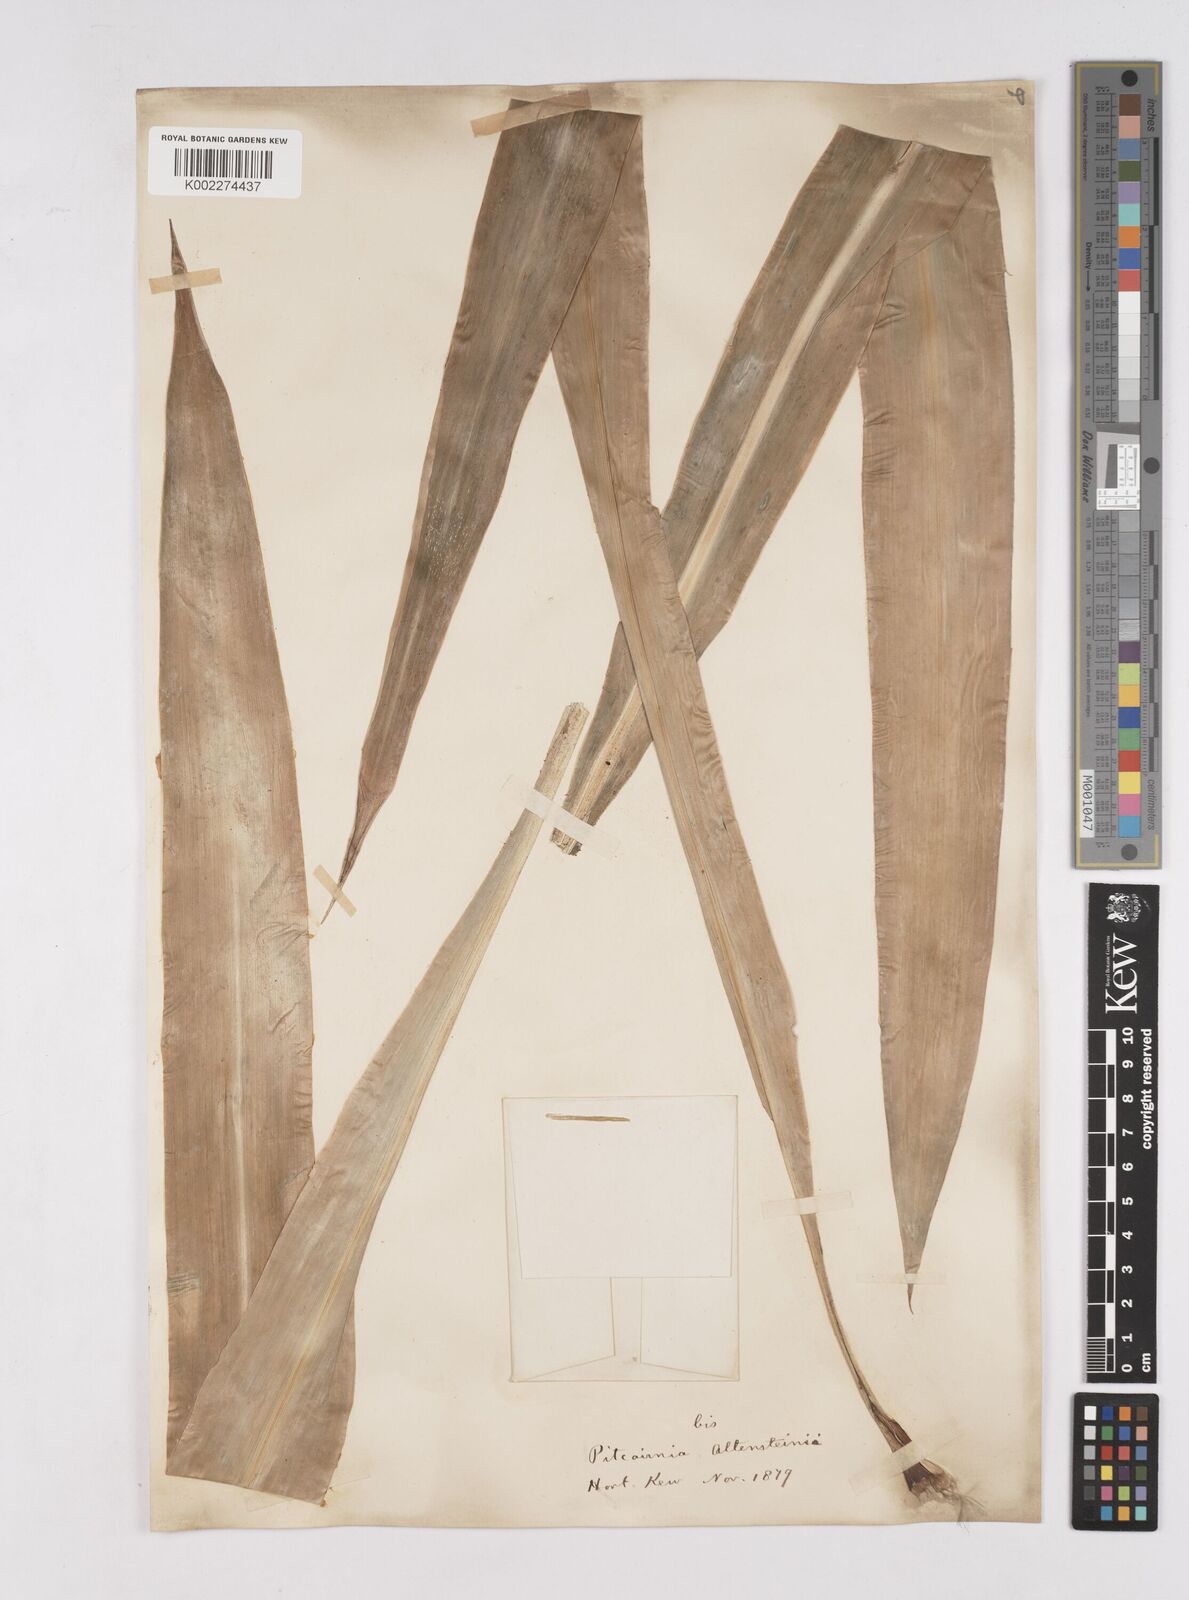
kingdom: Plantae
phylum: Tracheophyta
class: Liliopsida
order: Poales
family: Bromeliaceae
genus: Pitcairnia
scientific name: Pitcairnia altensteinii
